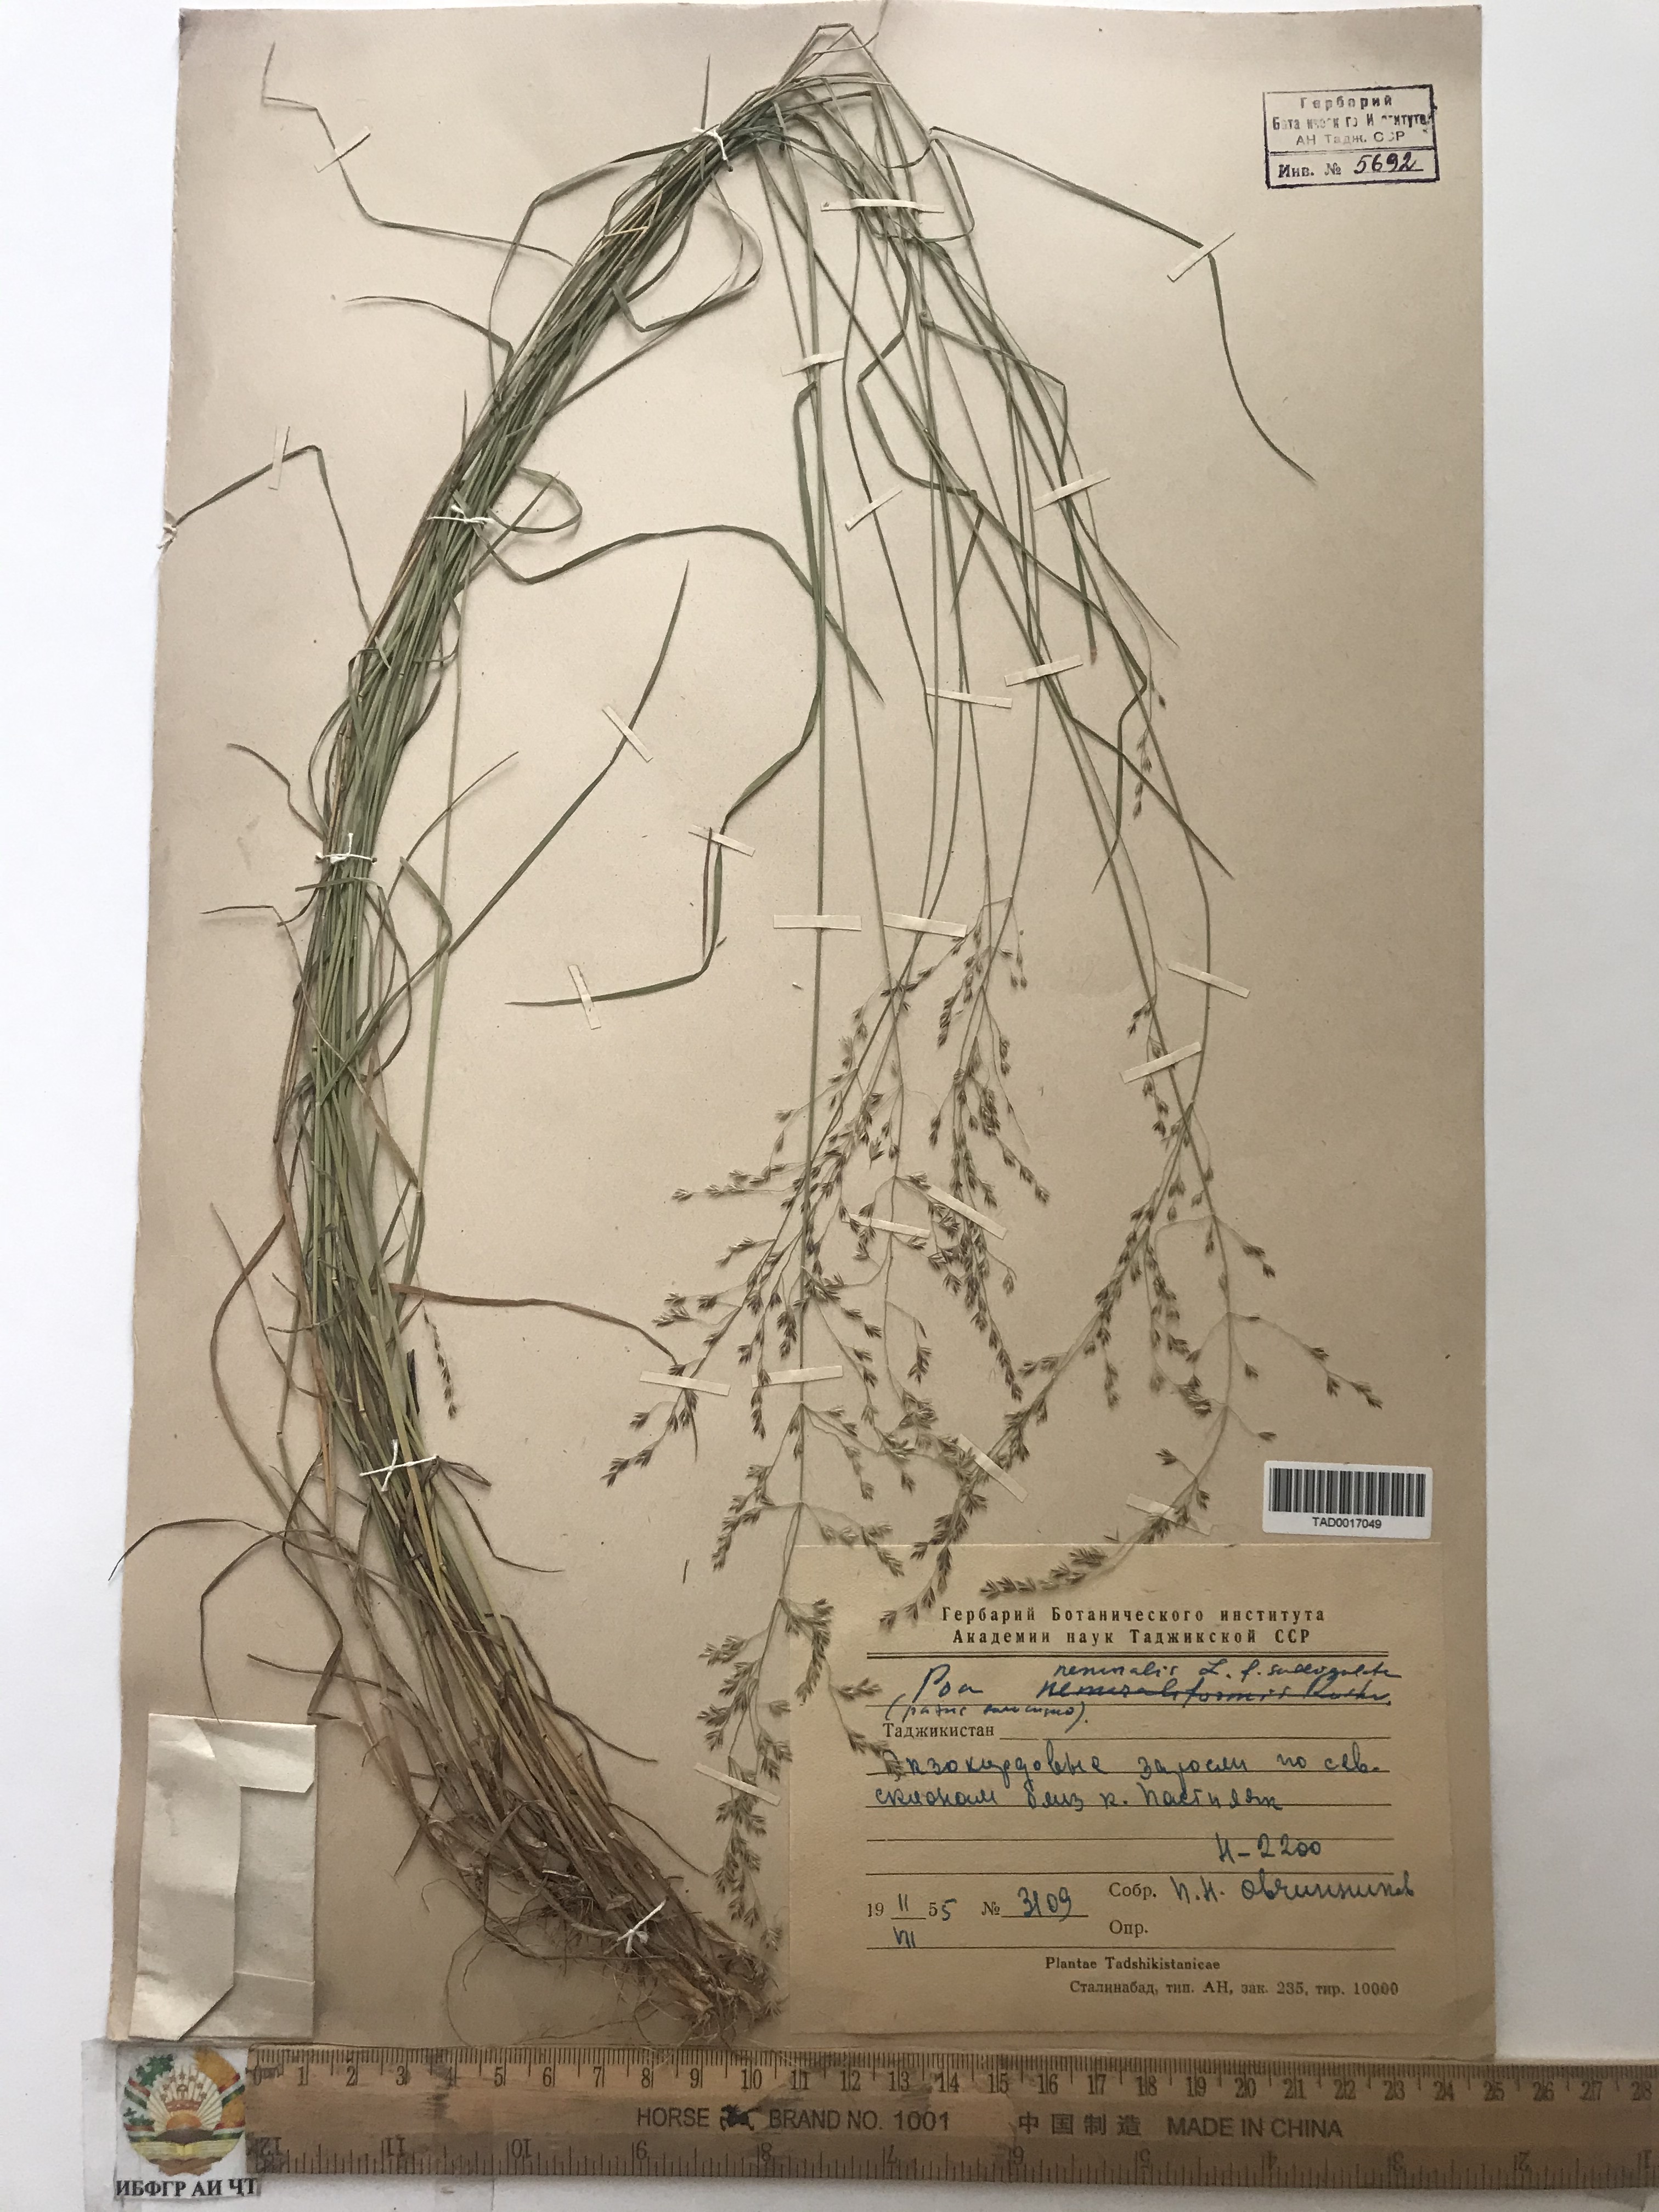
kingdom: Plantae
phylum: Tracheophyta
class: Liliopsida
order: Poales
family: Poaceae
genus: Poa
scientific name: Poa nemoralis
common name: Wood bluegrass
